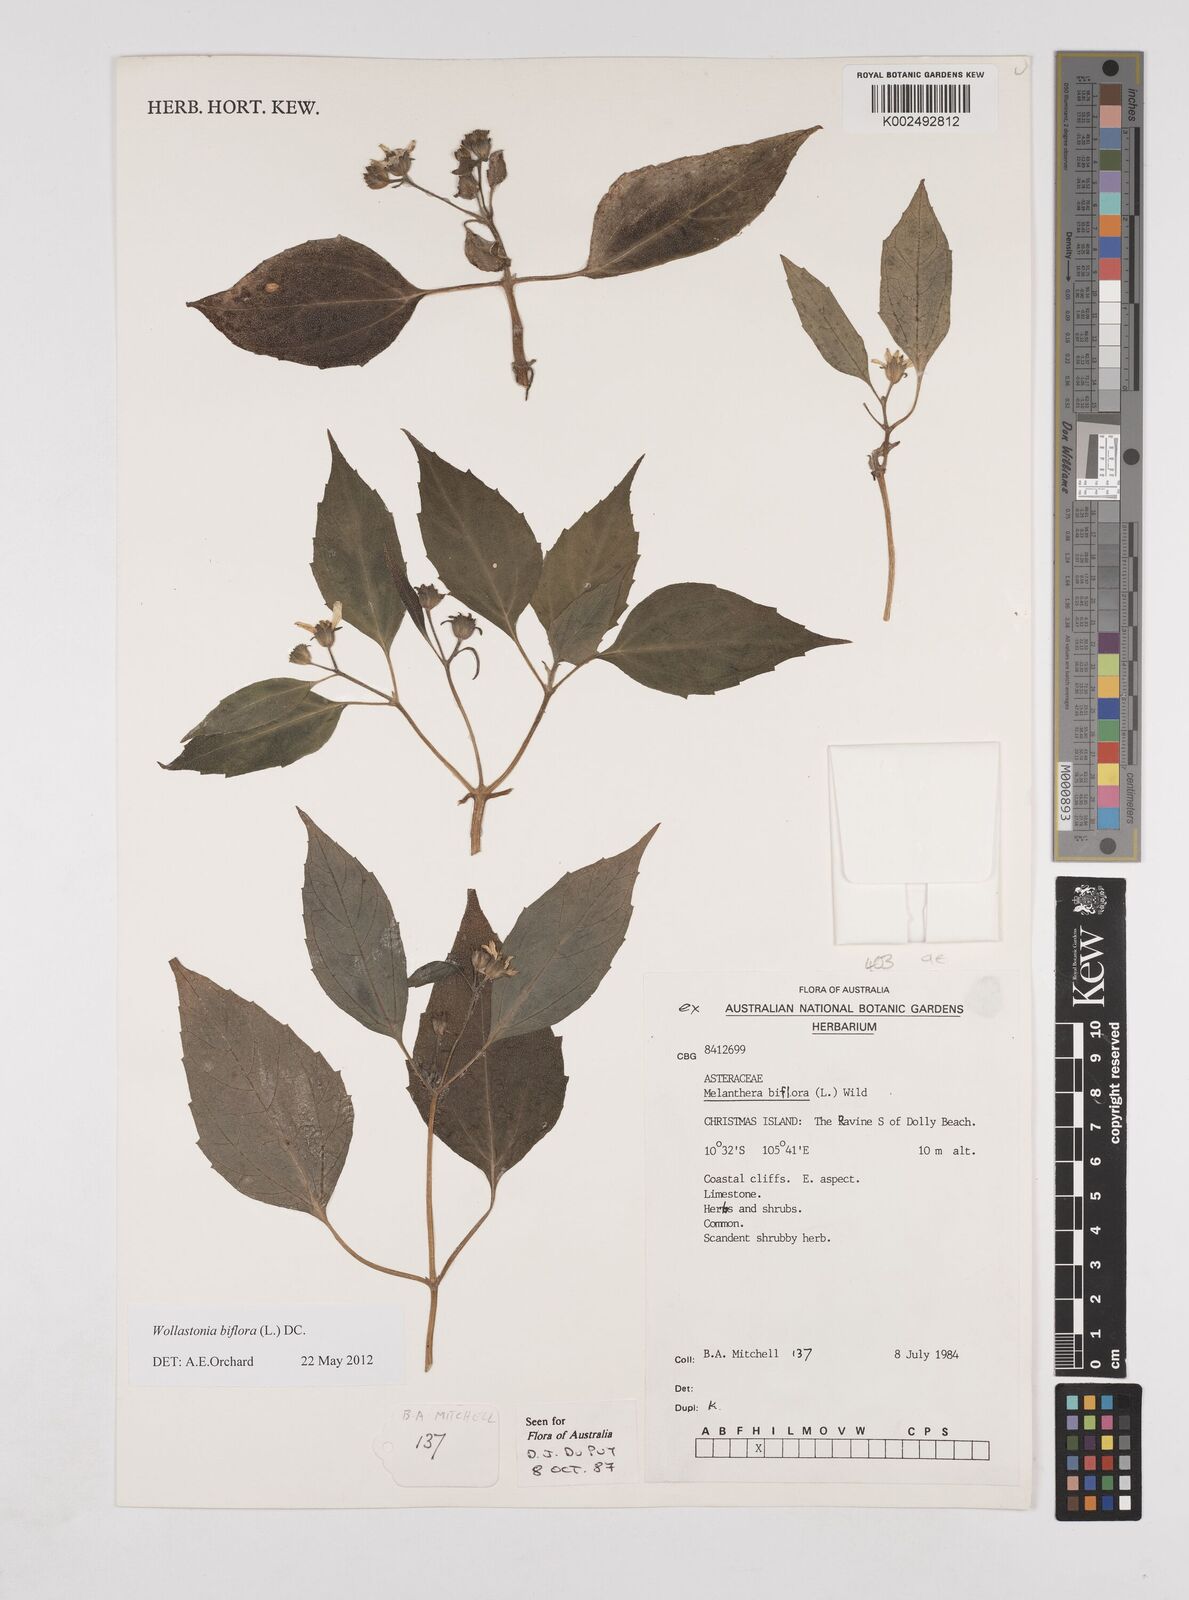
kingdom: Plantae
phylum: Tracheophyta
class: Magnoliopsida
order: Asterales
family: Asteraceae
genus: Wollastonia
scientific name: Wollastonia biflora
